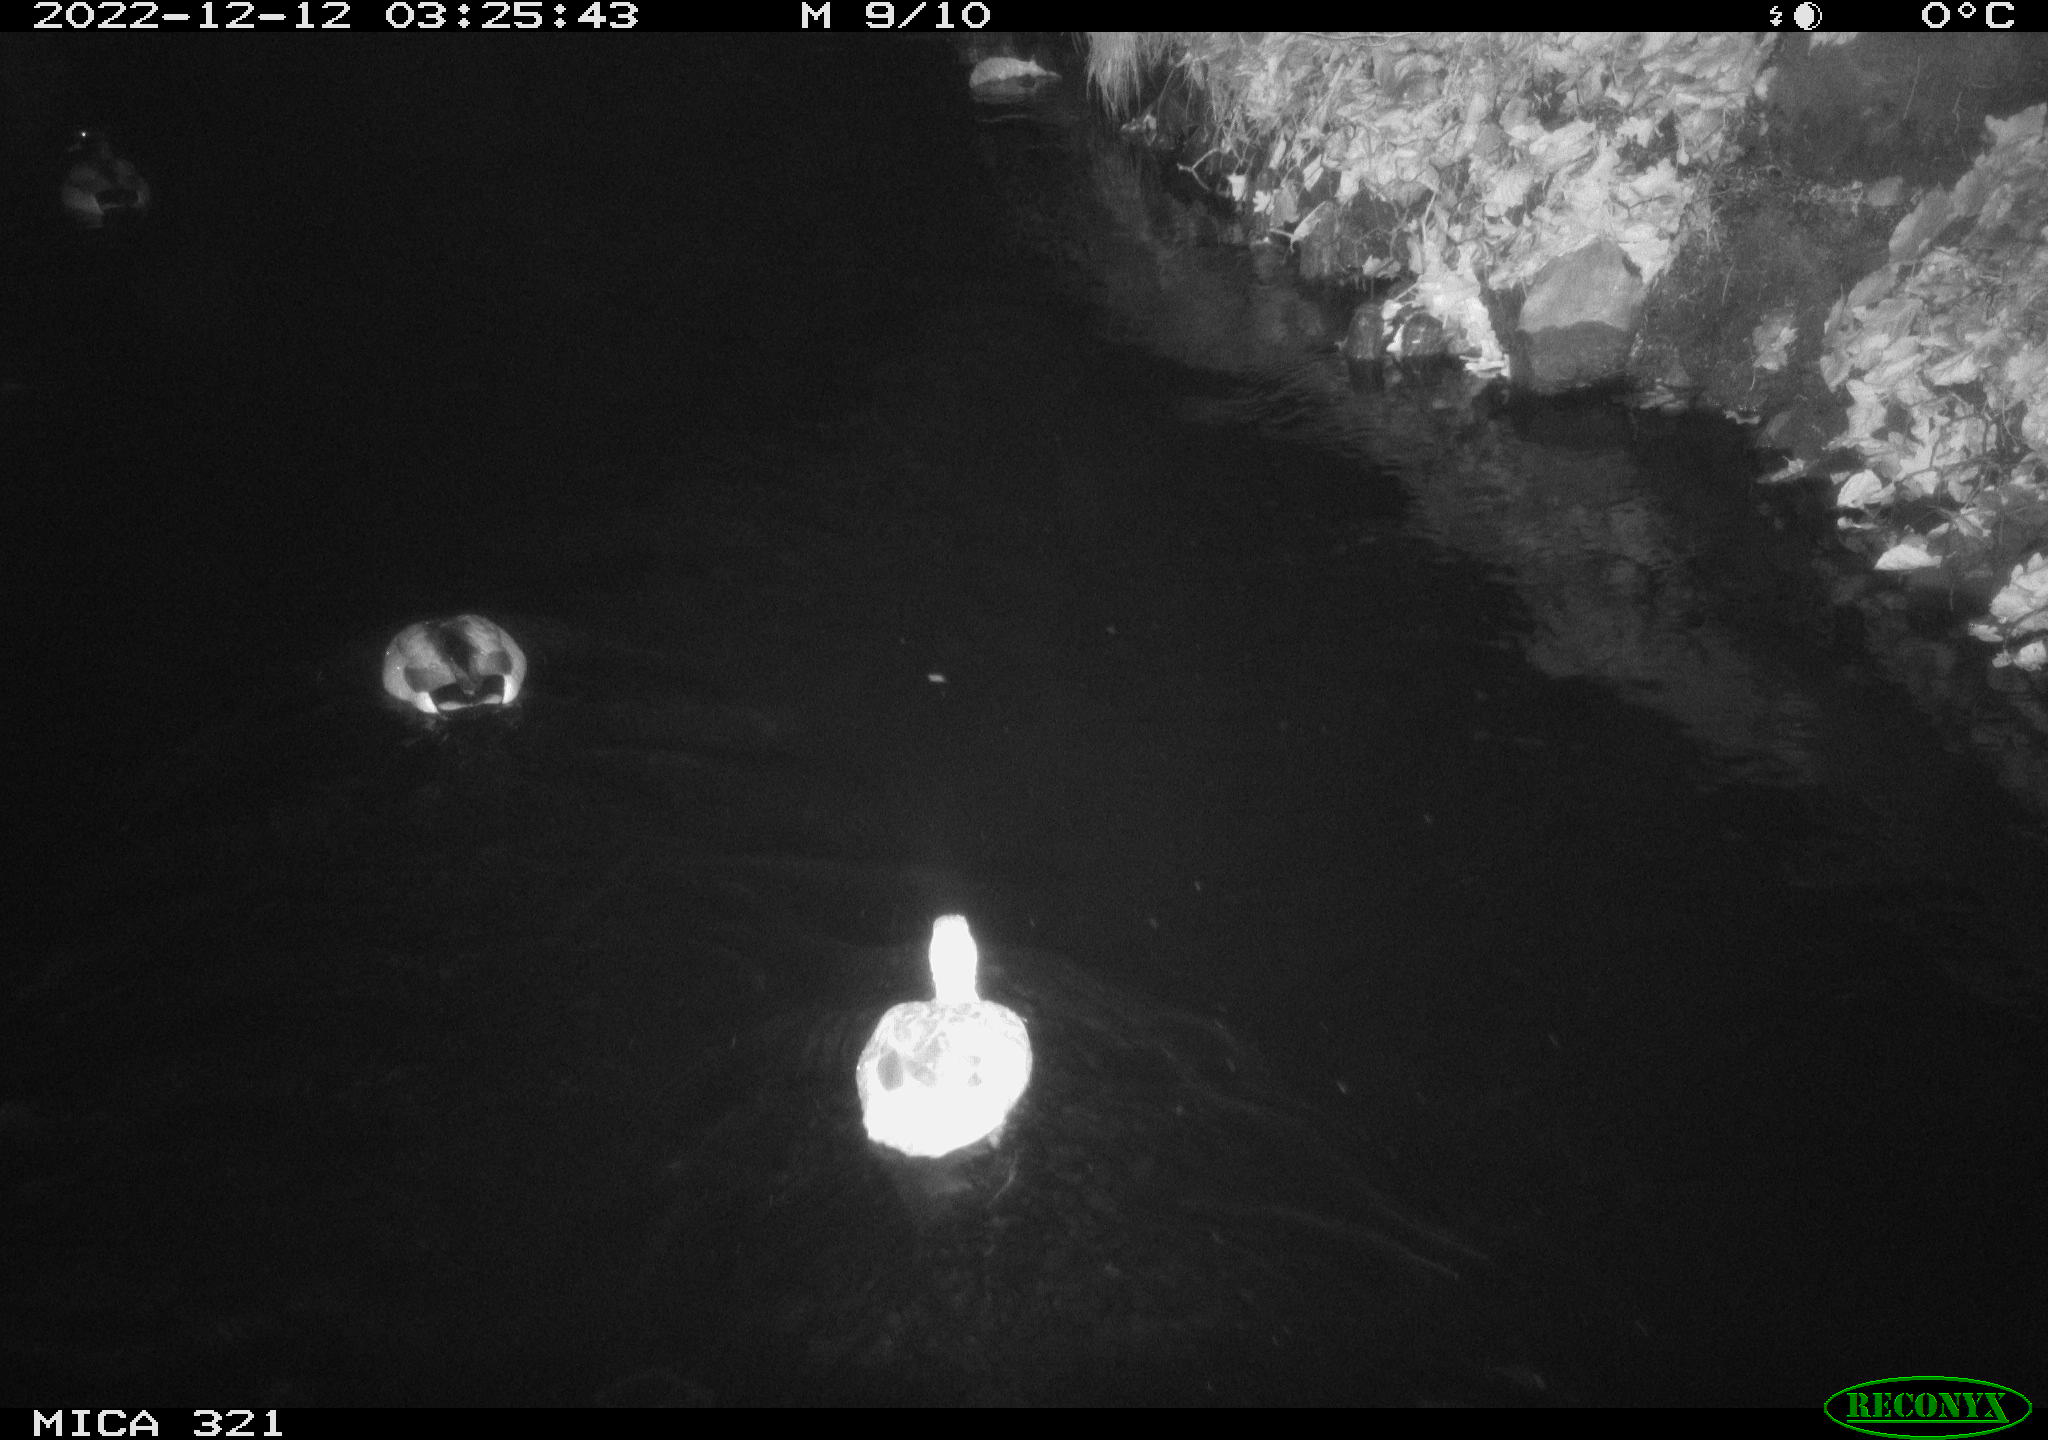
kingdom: Animalia
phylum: Chordata
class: Aves
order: Anseriformes
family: Anatidae
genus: Anas
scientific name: Anas
